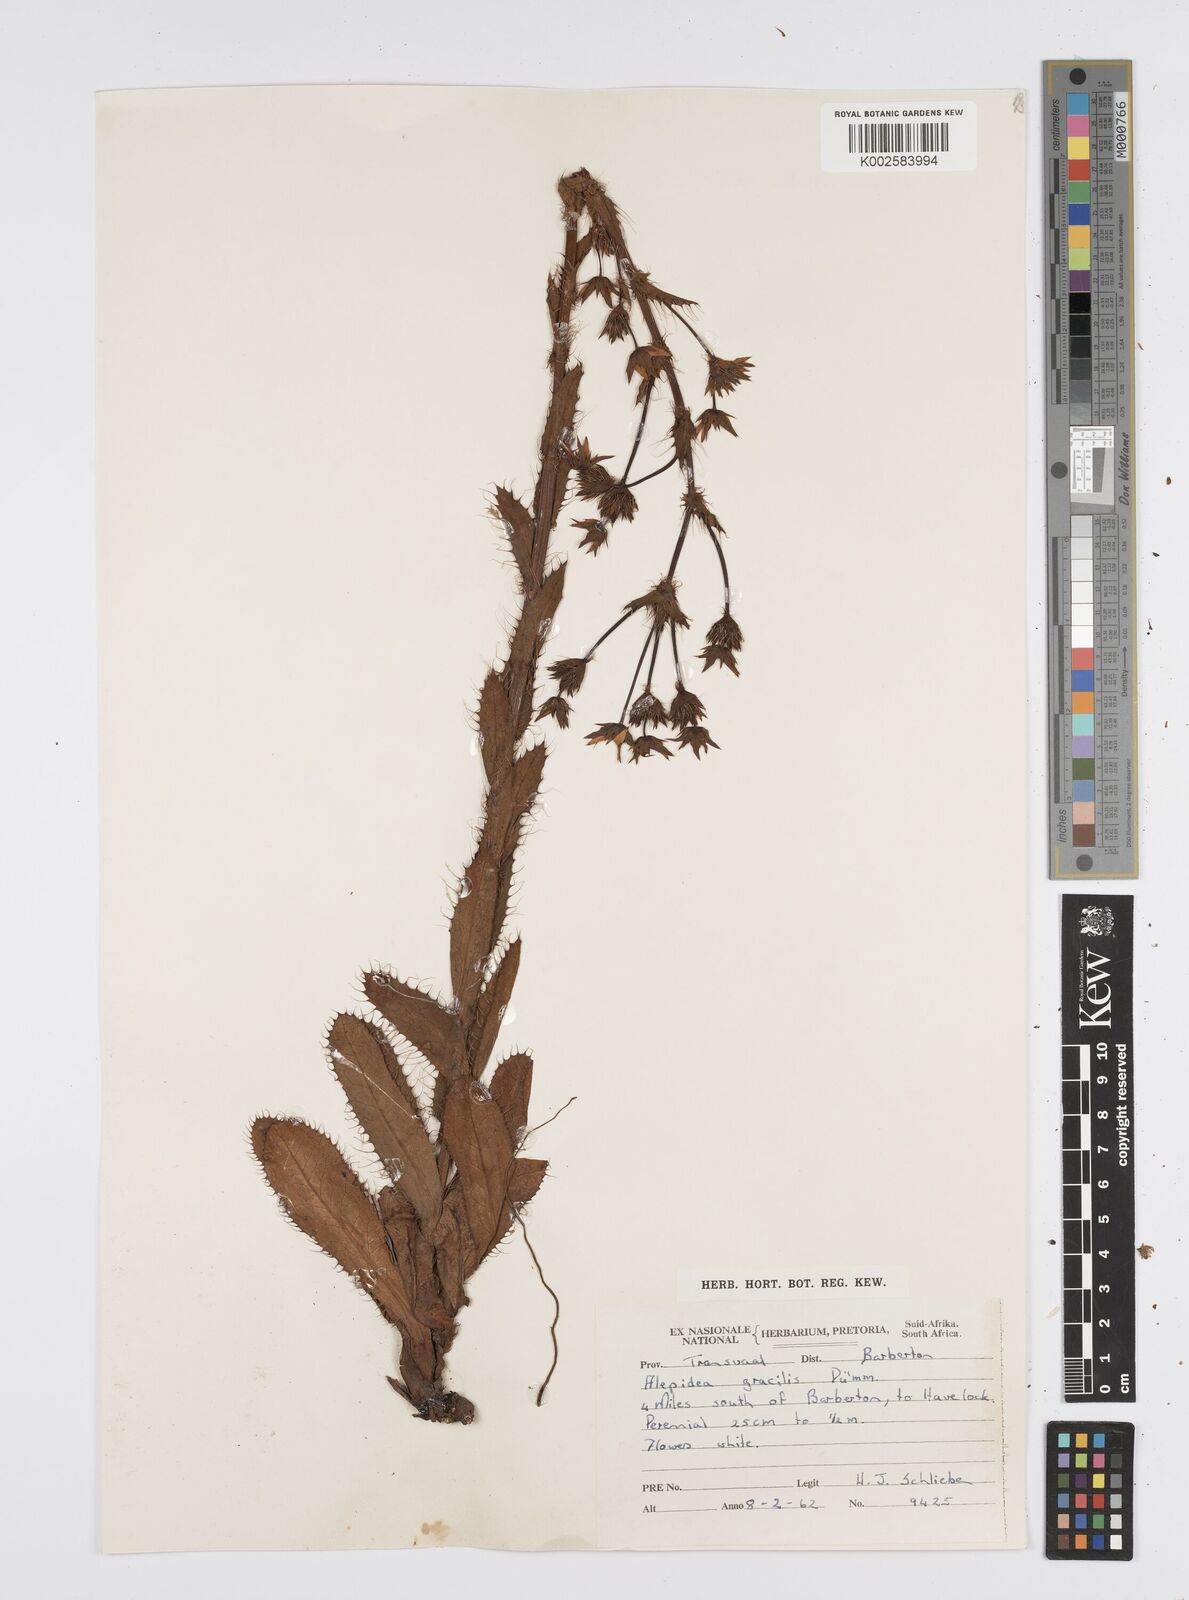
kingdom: Plantae
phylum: Tracheophyta
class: Magnoliopsida
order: Apiales
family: Apiaceae
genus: Alepidea
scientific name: Alepidea
